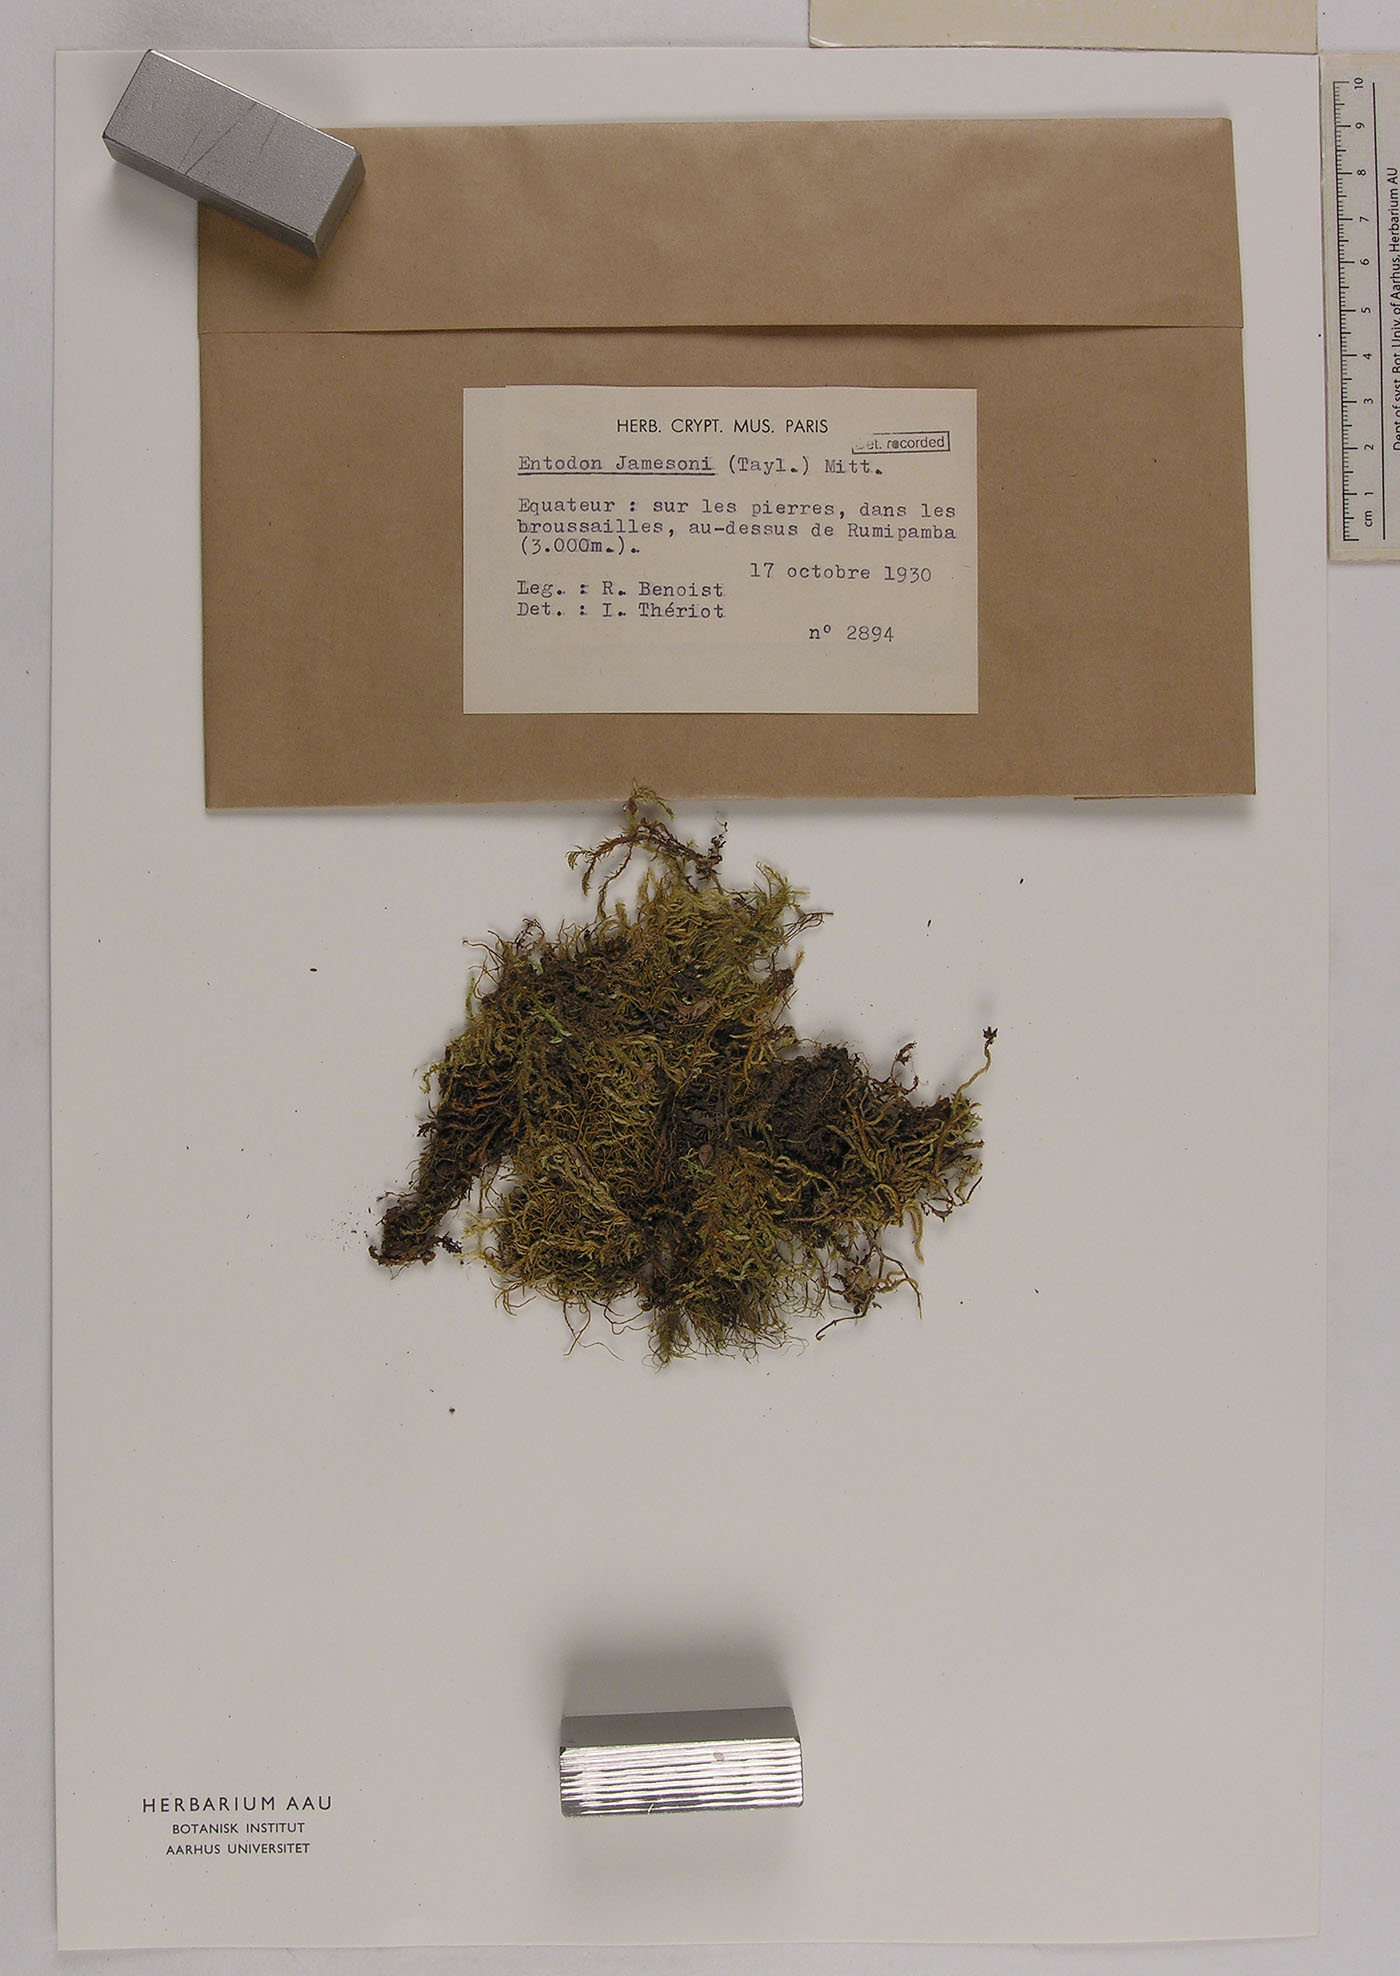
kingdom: Plantae
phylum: Bryophyta
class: Bryopsida
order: Hypnales
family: Entodontaceae
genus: Entodon
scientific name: Entodon jamesonii
